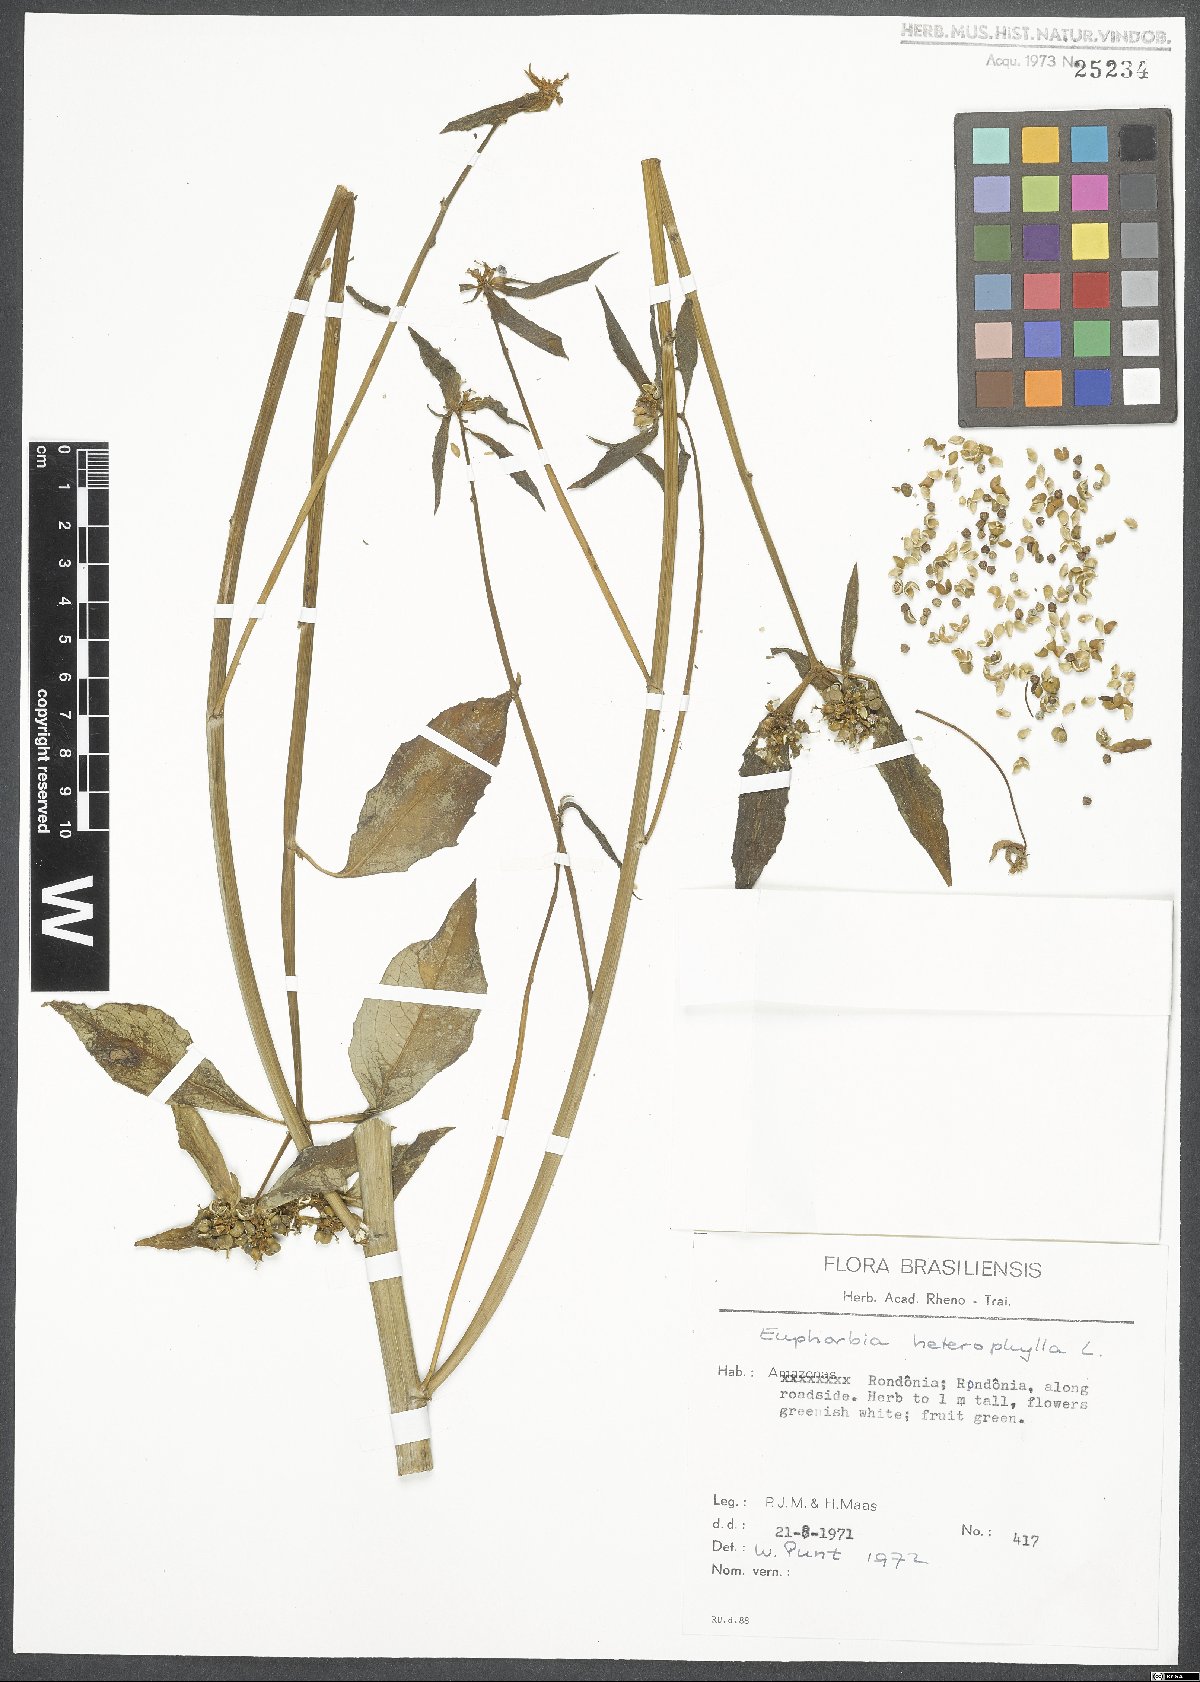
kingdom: Plantae
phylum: Tracheophyta
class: Magnoliopsida
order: Malpighiales
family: Euphorbiaceae
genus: Euphorbia
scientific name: Euphorbia heterophylla
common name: Mexican fireplant
